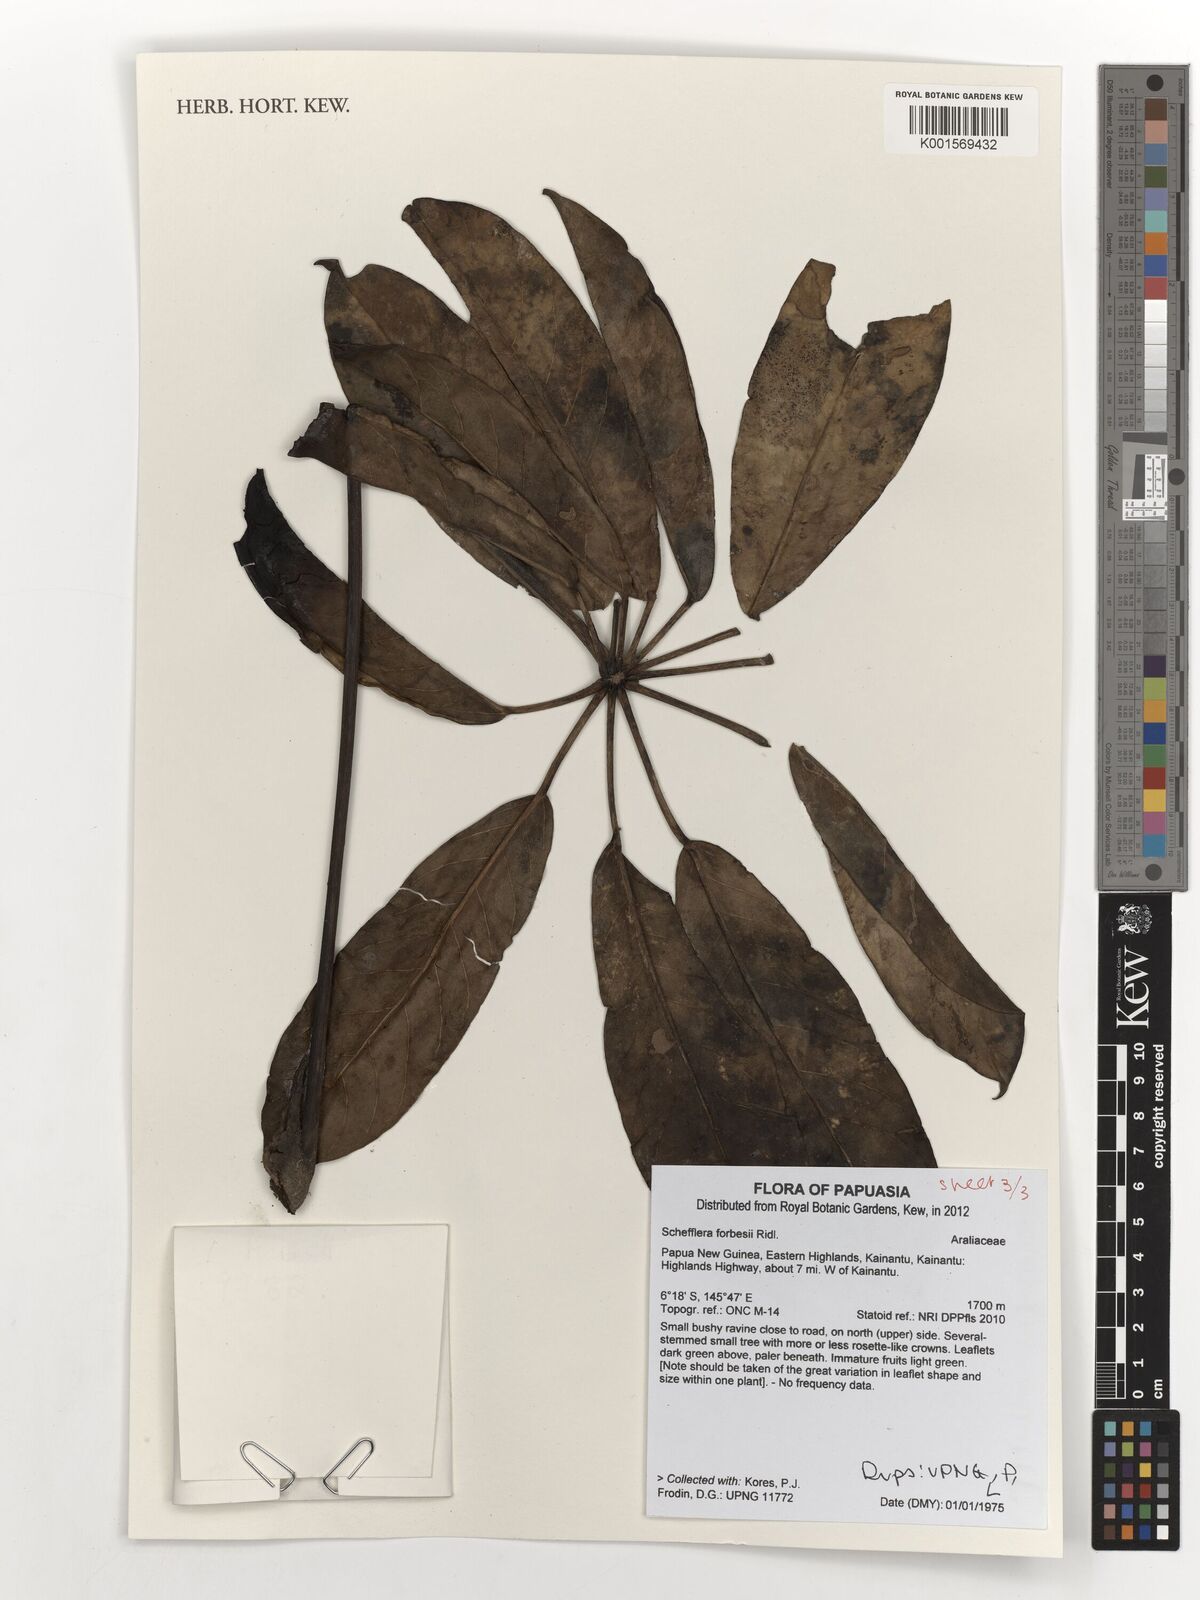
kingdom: Plantae
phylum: Tracheophyta
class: Magnoliopsida
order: Apiales
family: Araliaceae
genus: Heptapleurum
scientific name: Heptapleurum forbesii
